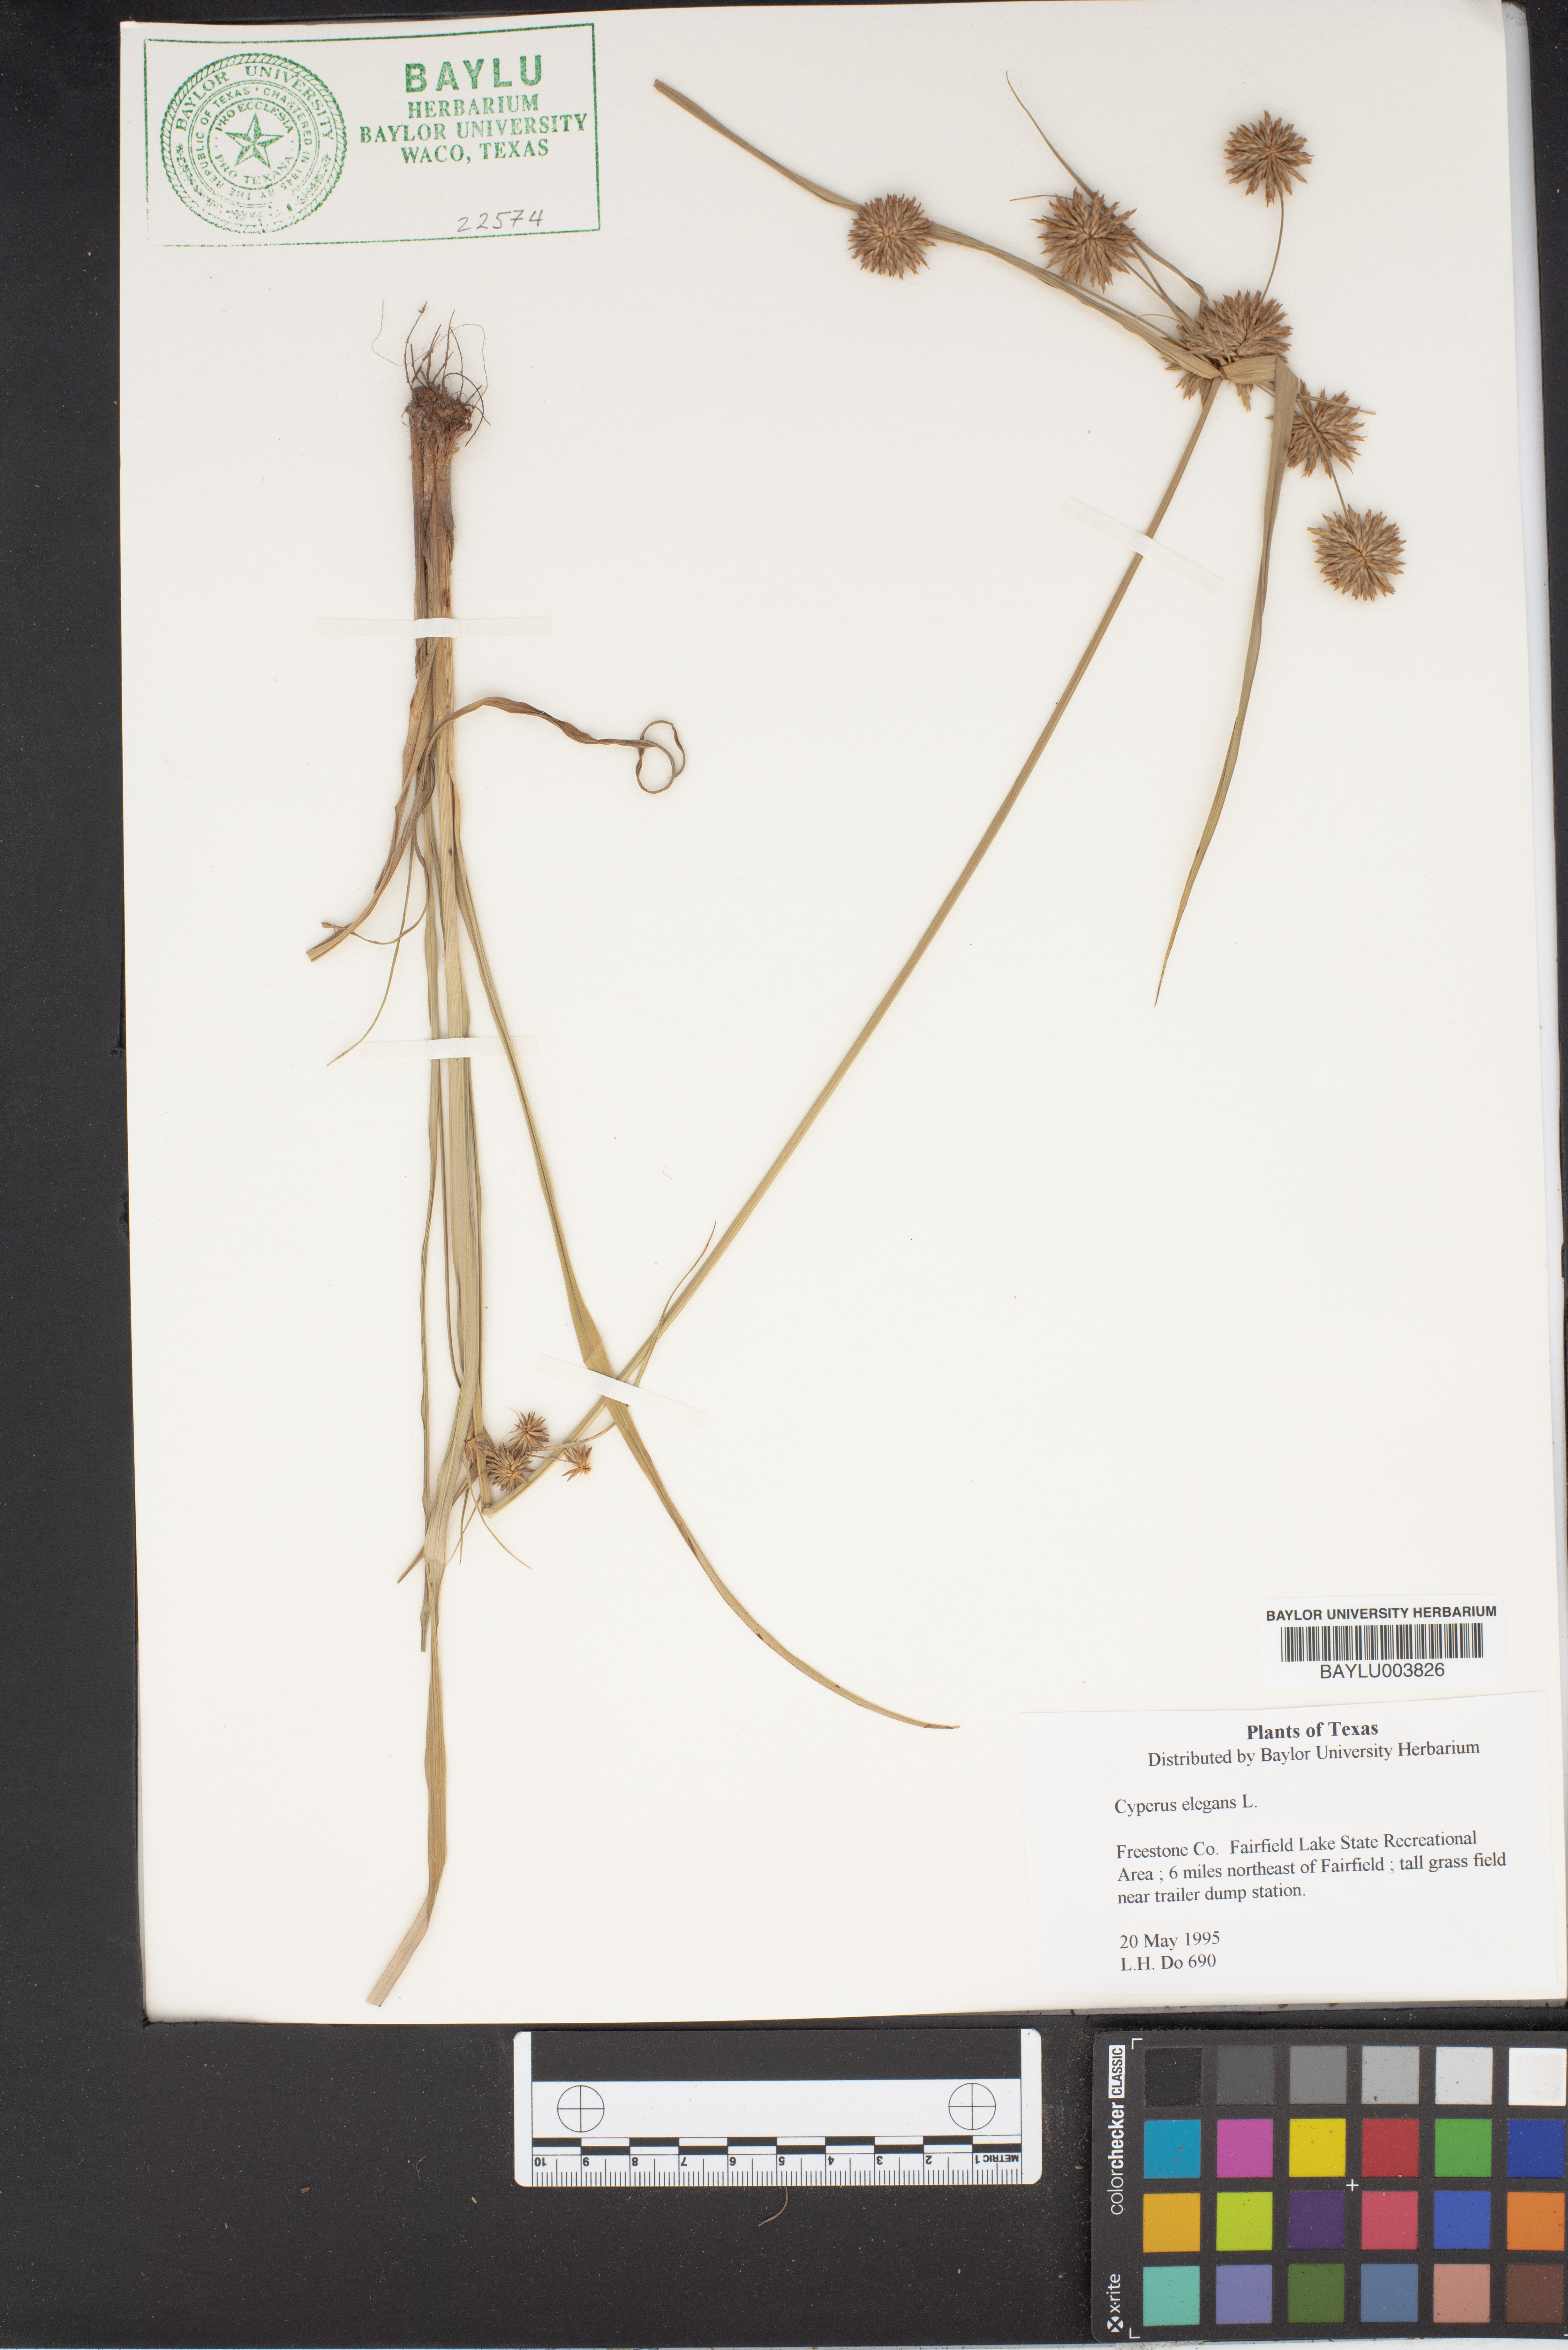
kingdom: Plantae
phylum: Tracheophyta
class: Liliopsida
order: Poales
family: Cyperaceae
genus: Cyperus
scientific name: Cyperus elegans
